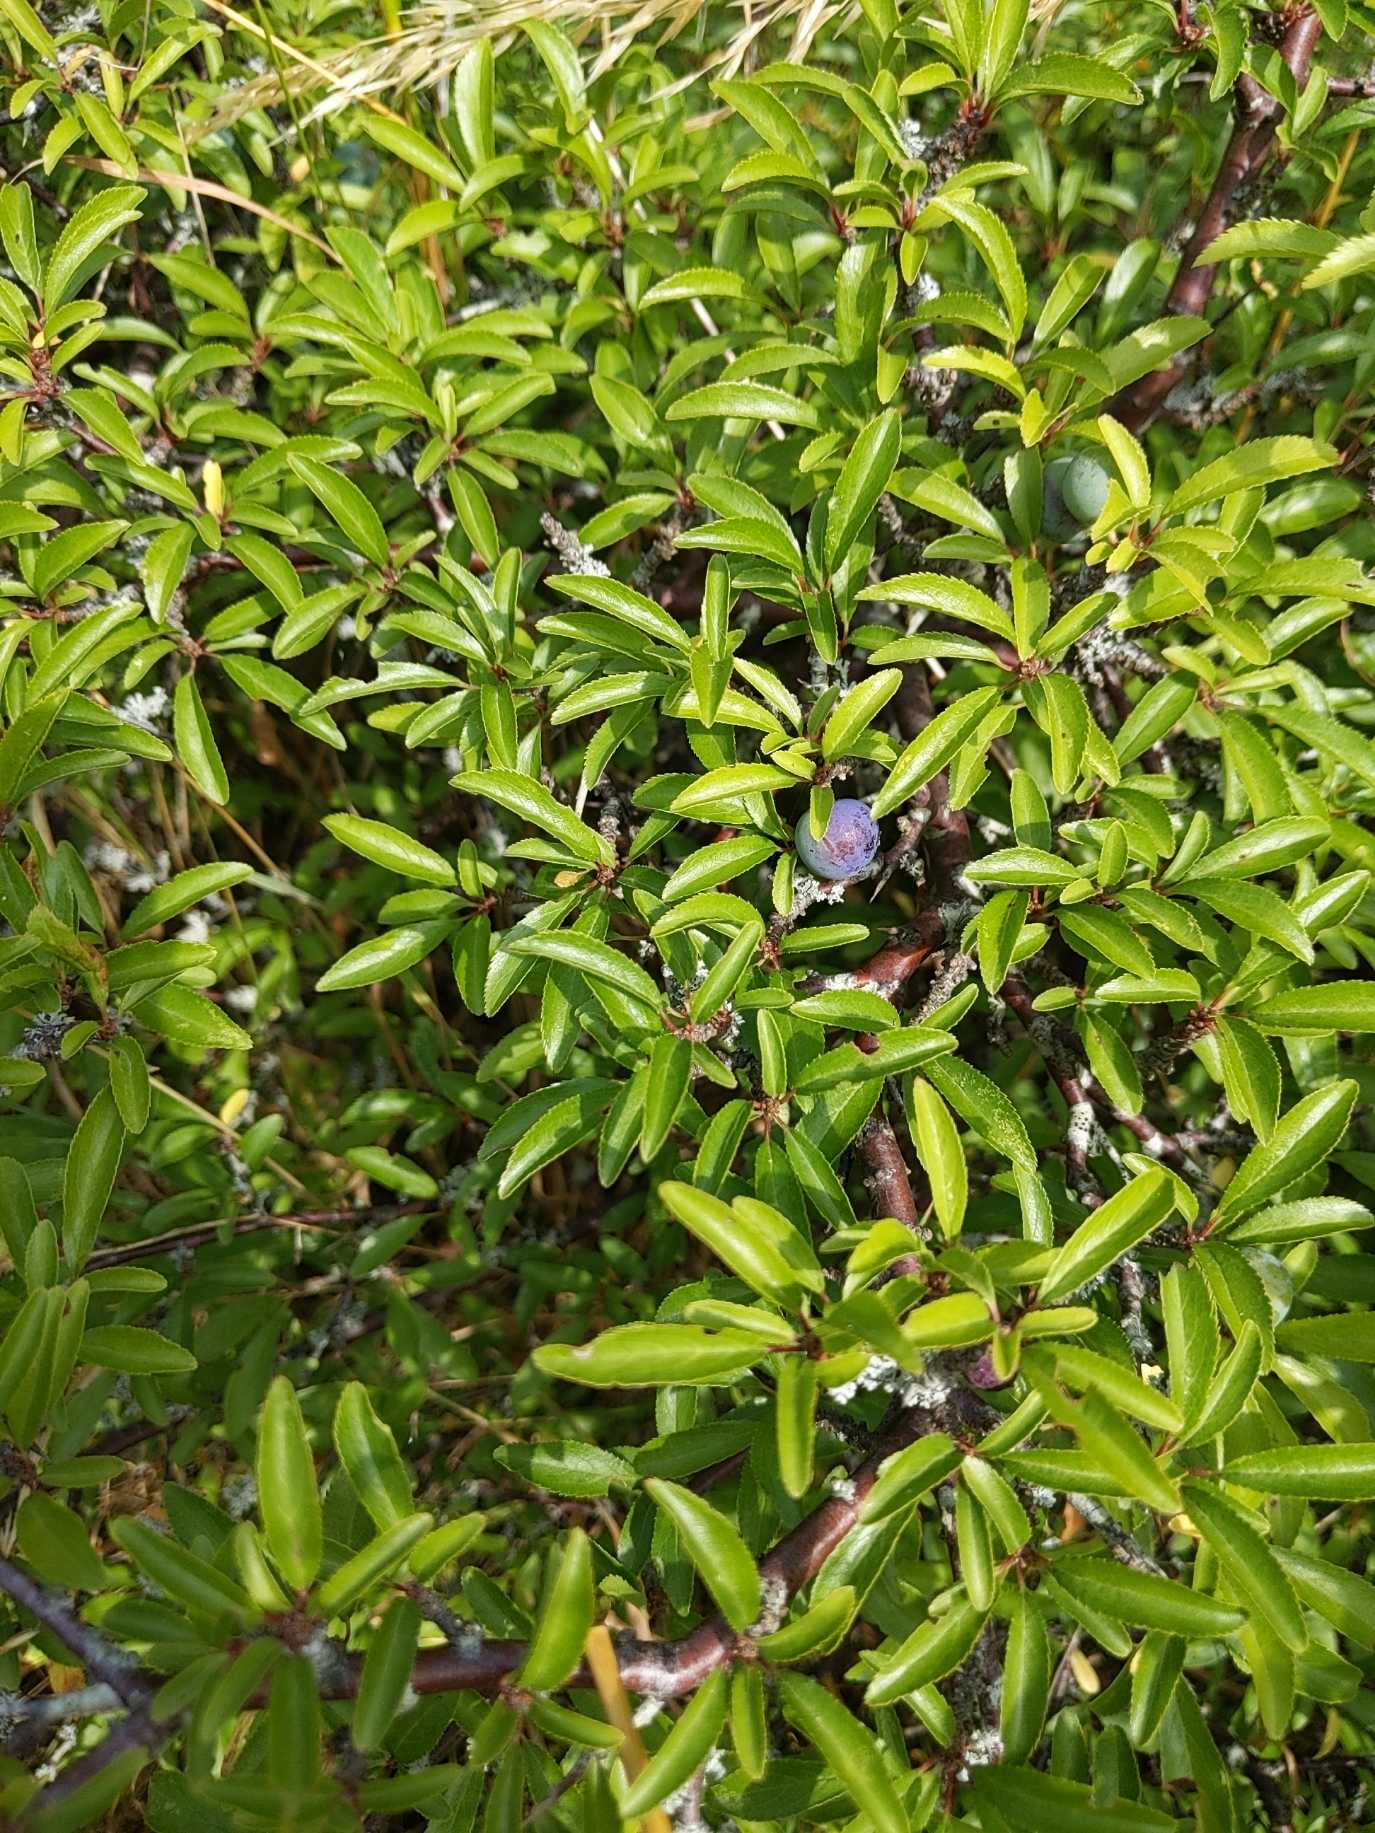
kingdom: Plantae
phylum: Tracheophyta
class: Magnoliopsida
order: Rosales
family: Rosaceae
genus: Prunus
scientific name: Prunus spinosa
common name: Slåen
